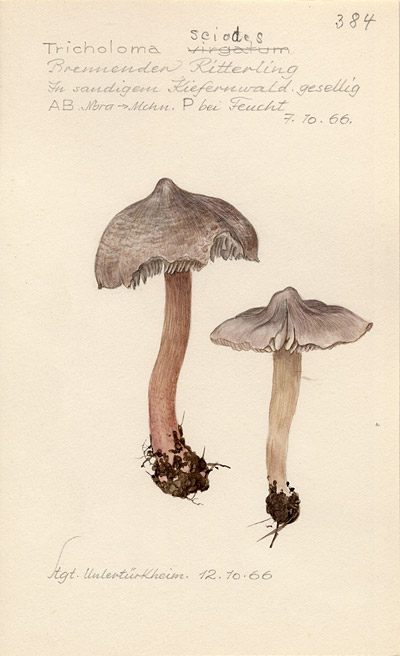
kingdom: Fungi
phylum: Basidiomycota
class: Agaricomycetes
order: Agaricales
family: Tricholomataceae
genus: Tricholoma
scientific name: Tricholoma sciodes
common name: Beech knight
